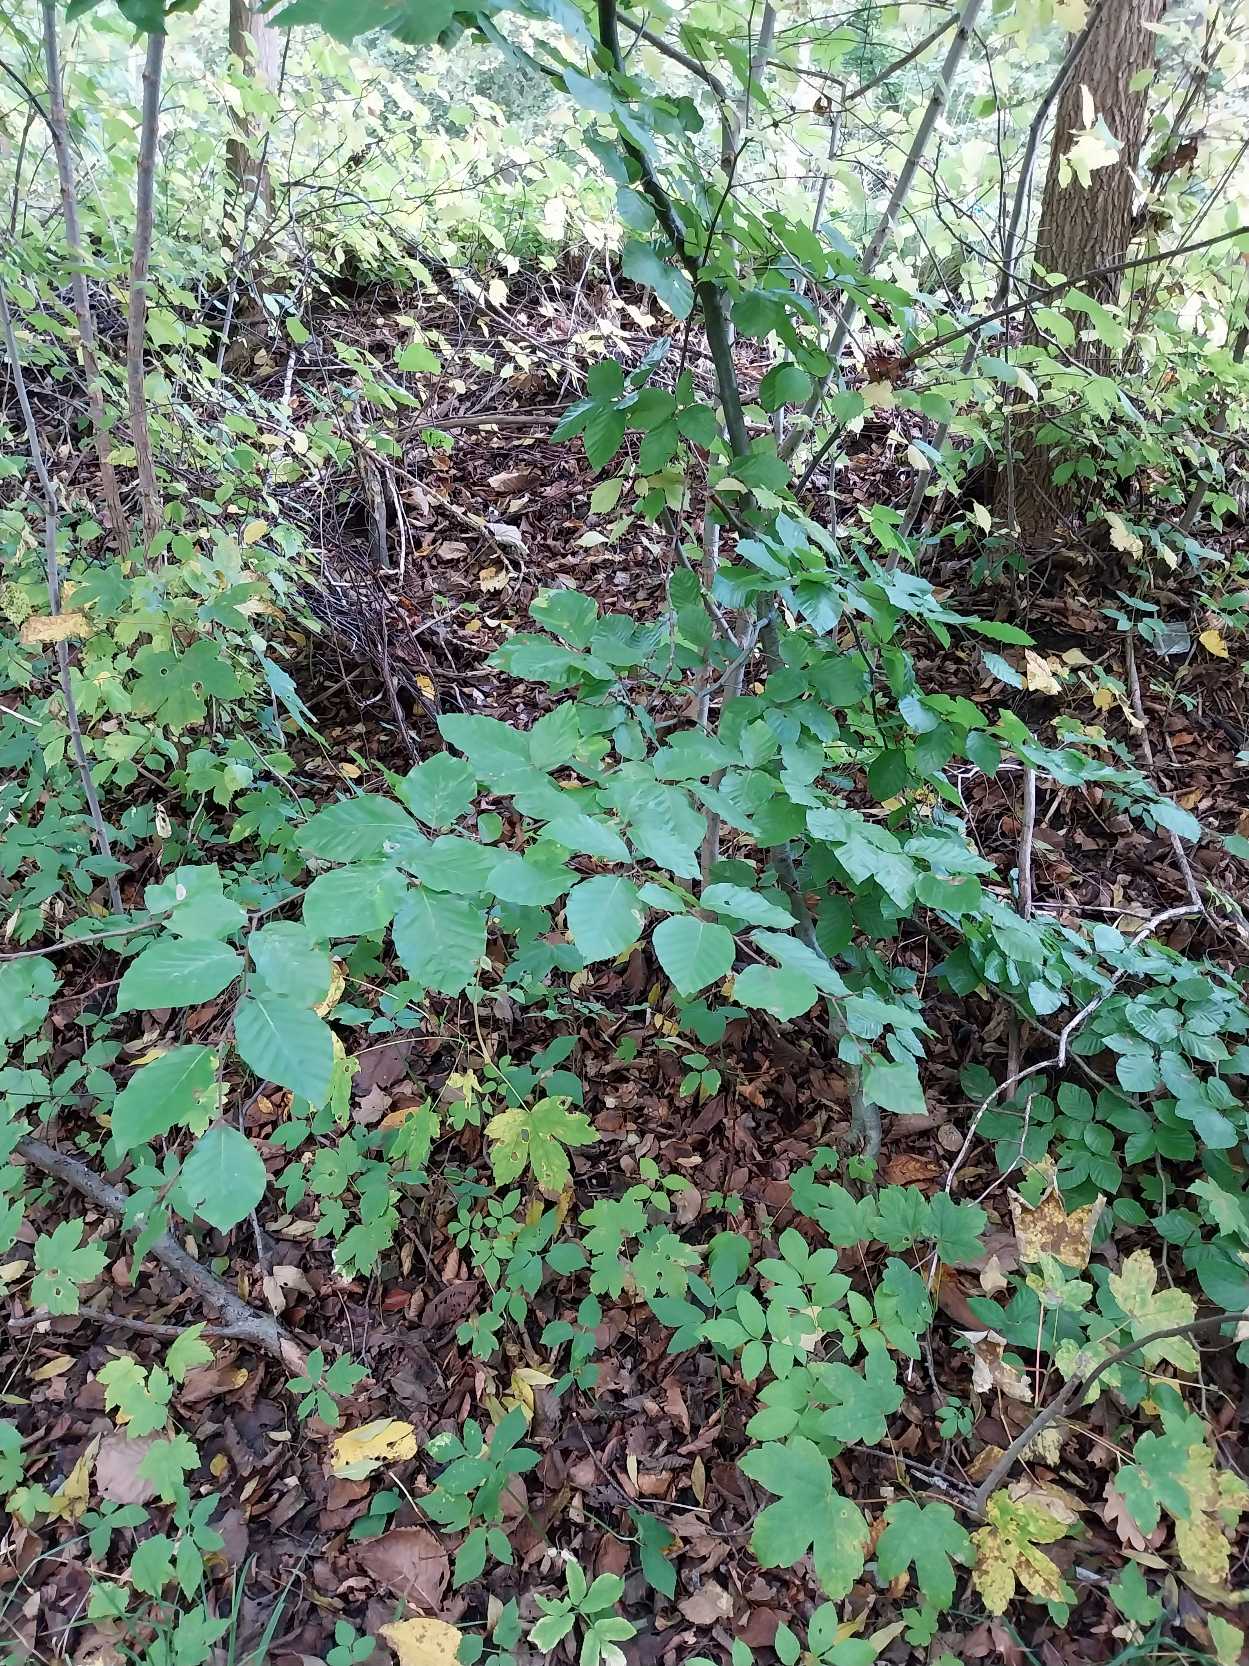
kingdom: Plantae
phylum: Tracheophyta
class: Magnoliopsida
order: Fagales
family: Fagaceae
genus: Fagus
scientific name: Fagus sylvatica
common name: Bøg
